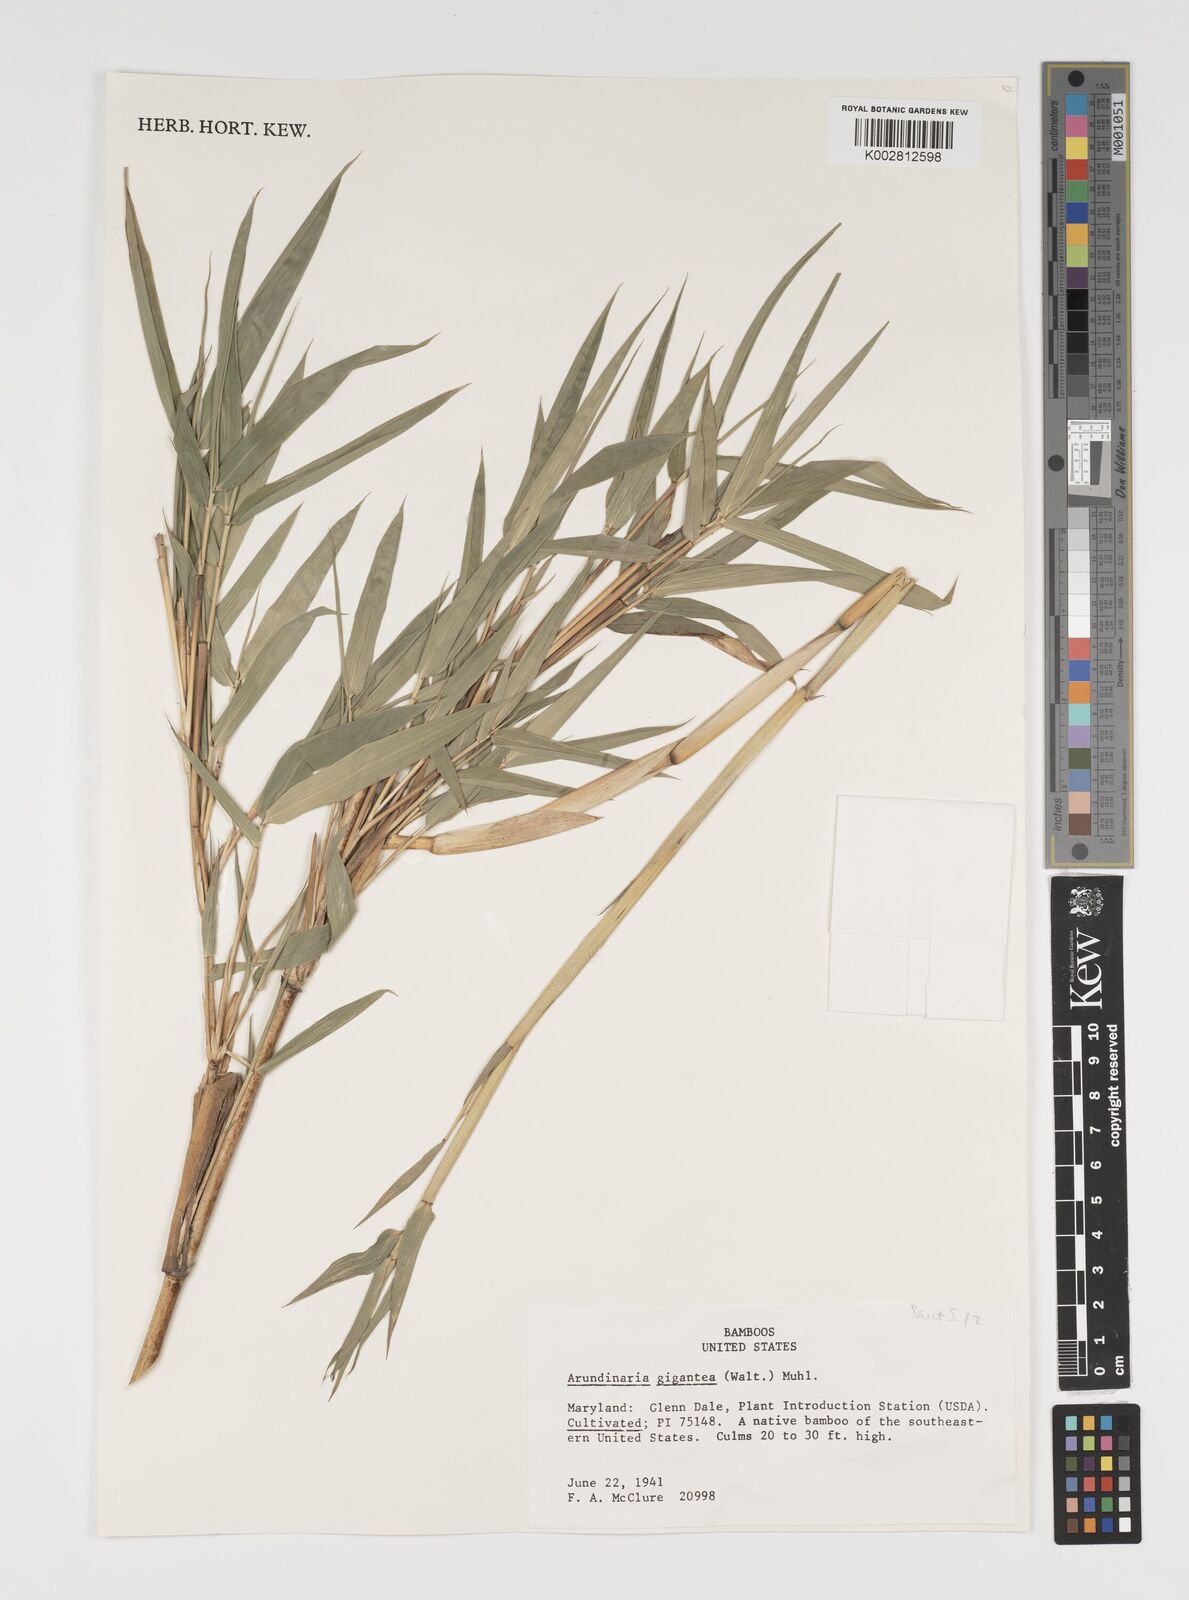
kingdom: Plantae
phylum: Tracheophyta
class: Liliopsida
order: Poales
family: Poaceae
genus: Arundinaria
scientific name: Arundinaria gigantea
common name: Giant cane
